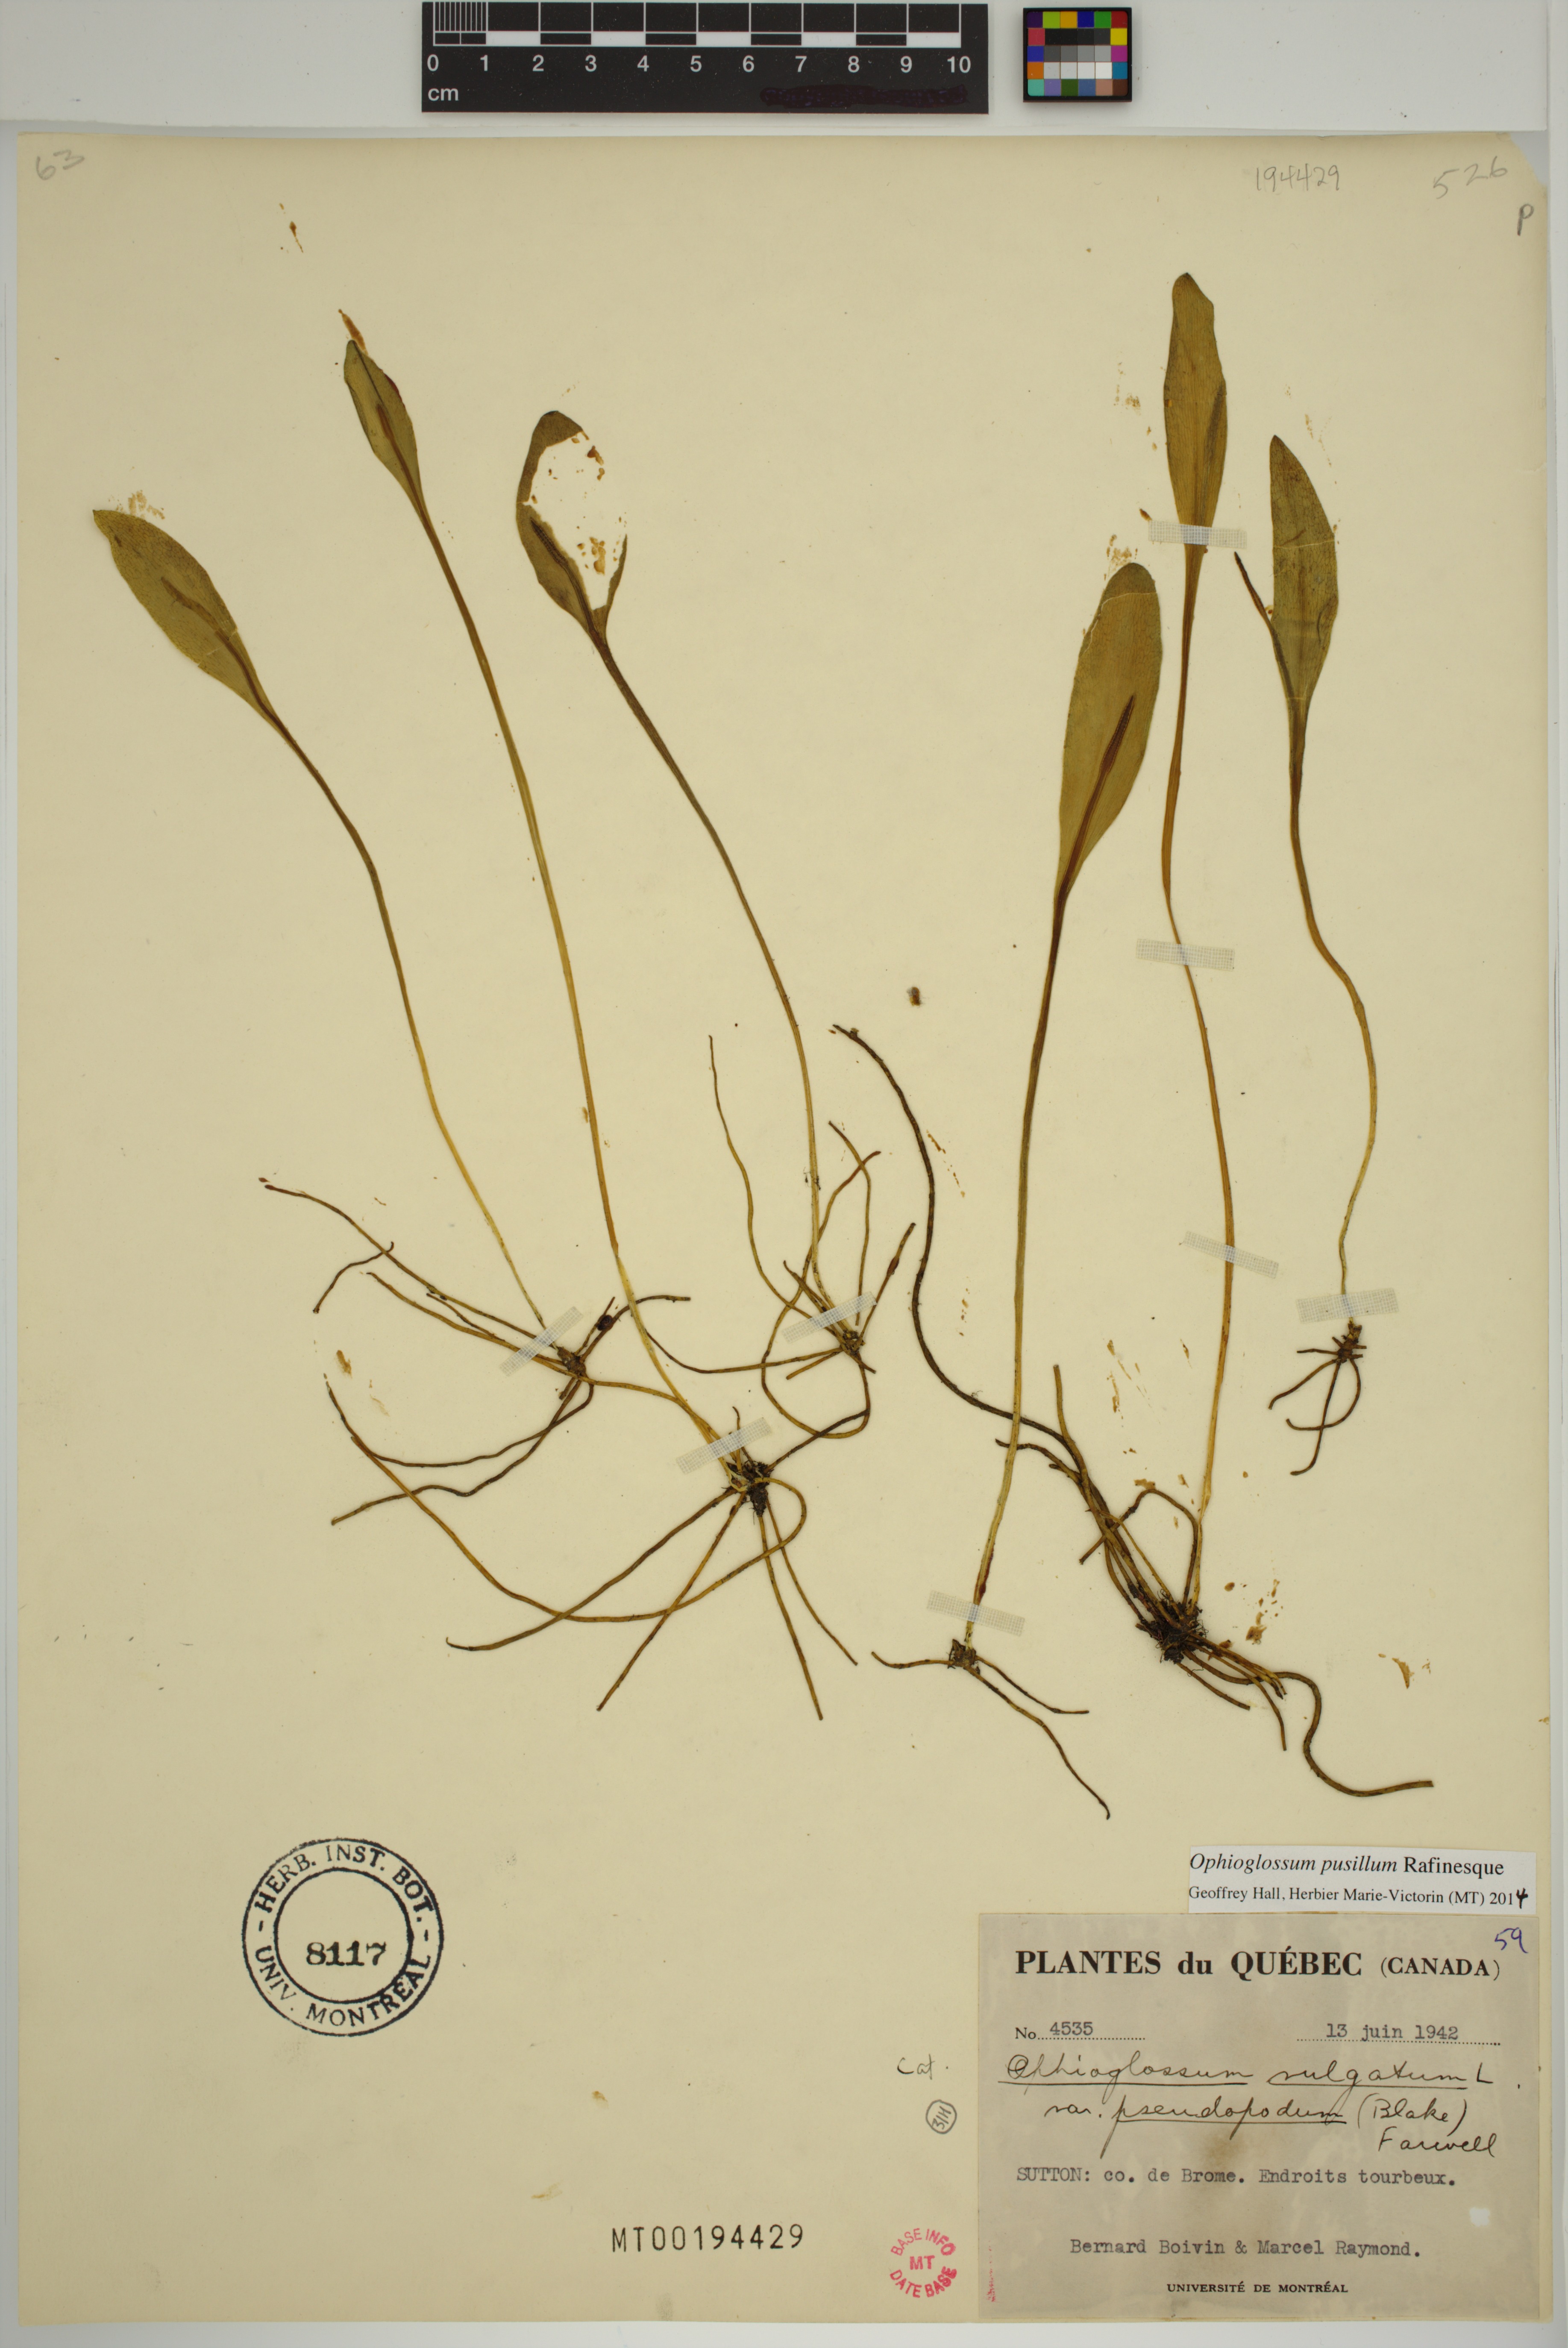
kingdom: Plantae
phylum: Tracheophyta
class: Polypodiopsida
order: Ophioglossales
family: Ophioglossaceae
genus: Ophioglossum
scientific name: Ophioglossum pusillum
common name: Northern adder's-tongue
